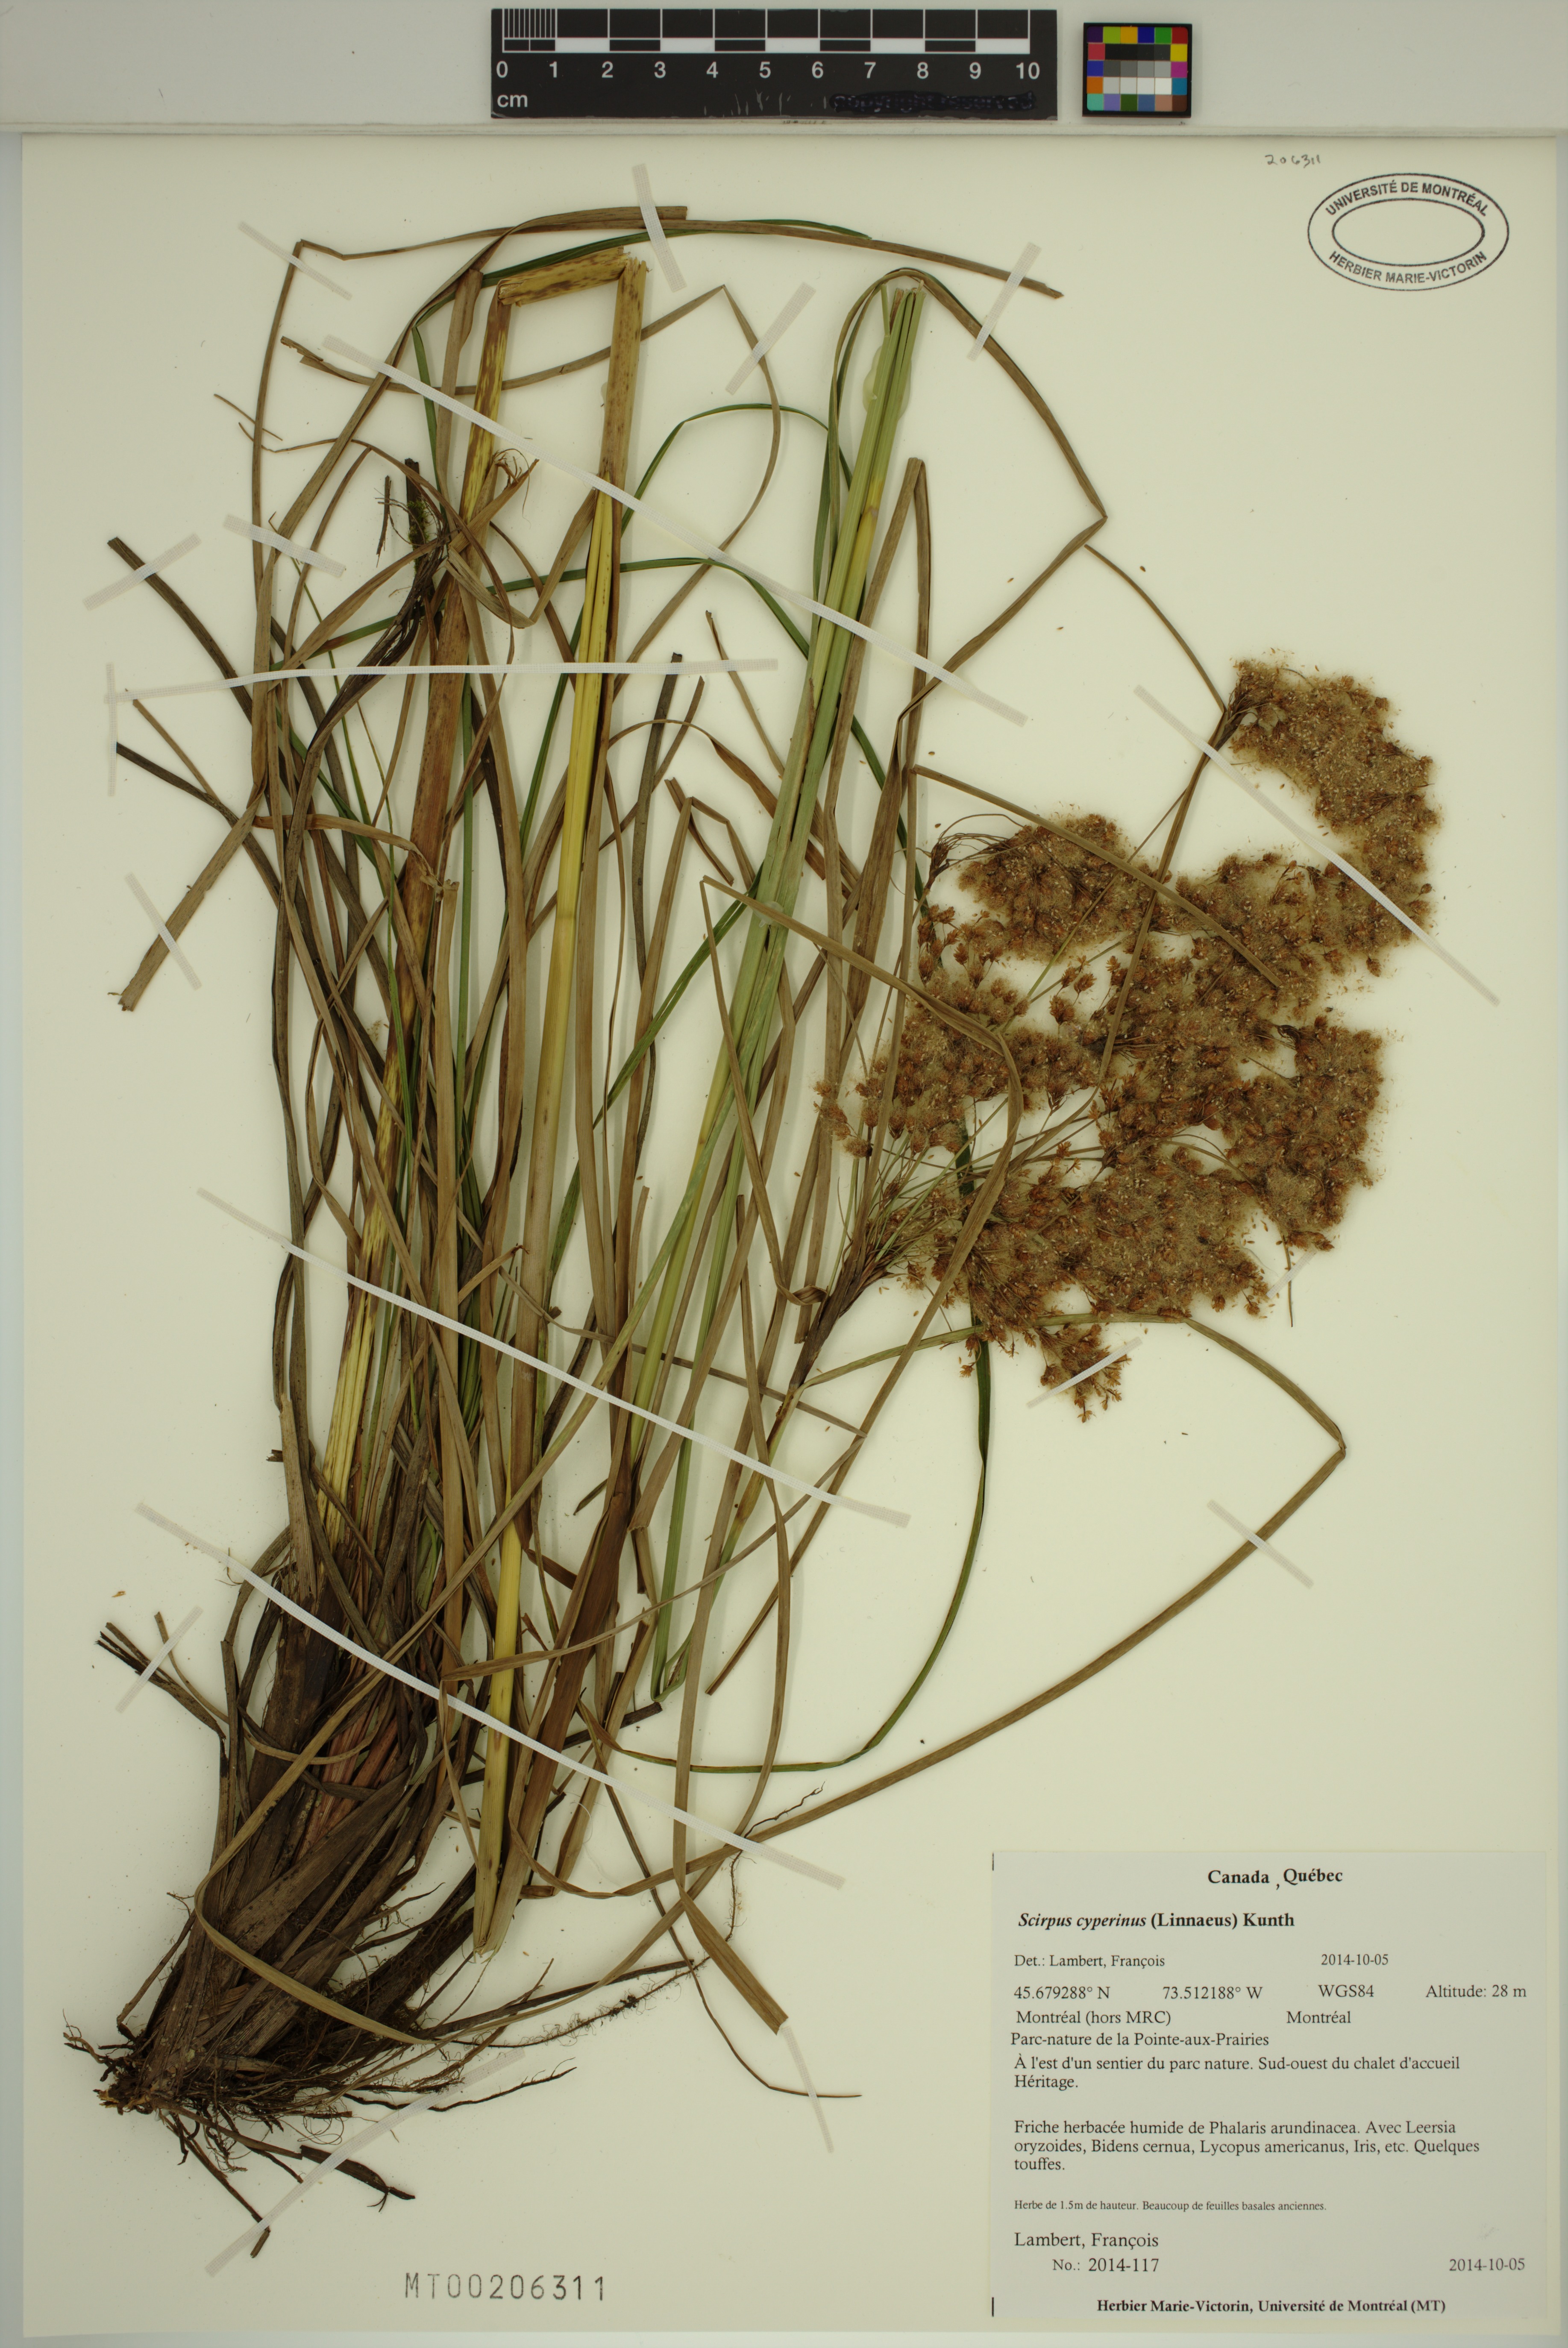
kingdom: Plantae
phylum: Tracheophyta
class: Liliopsida
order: Poales
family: Cyperaceae
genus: Scirpus
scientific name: Scirpus cyperinus
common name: Black-sheathed bulrush
